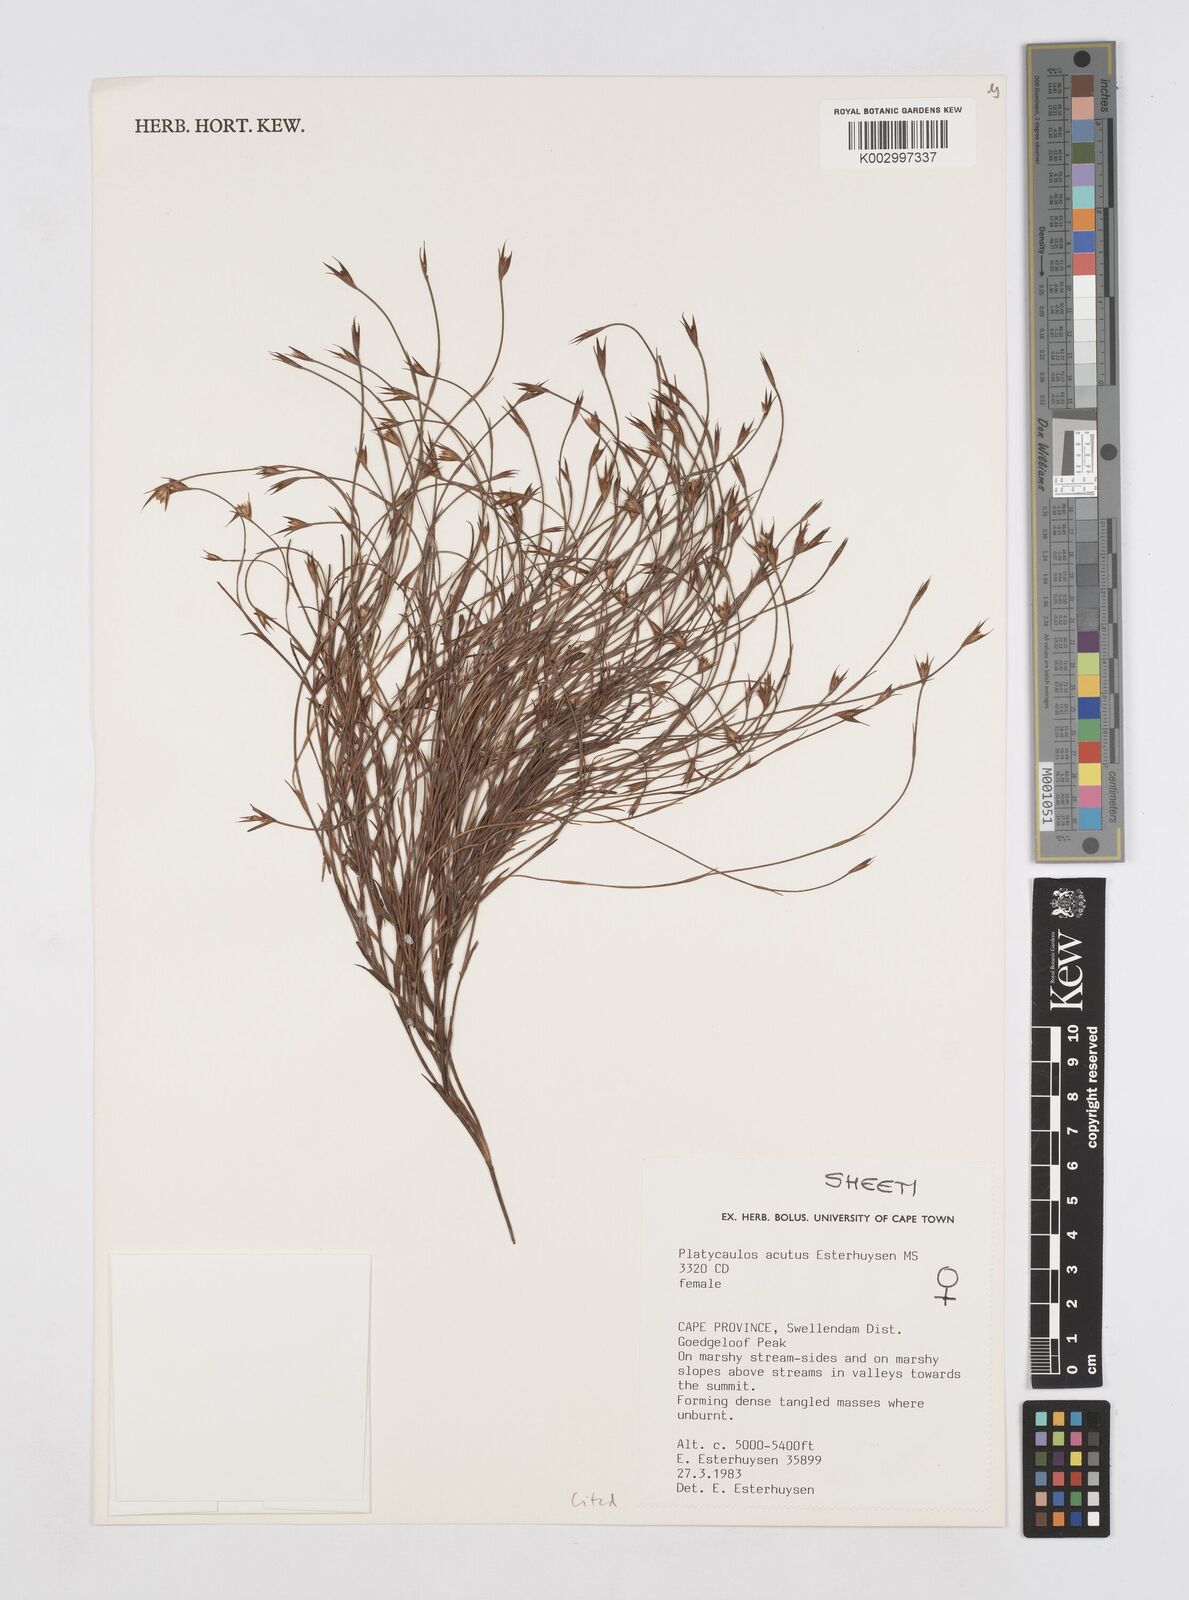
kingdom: Plantae
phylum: Tracheophyta
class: Liliopsida
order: Poales
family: Restionaceae
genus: Platycaulos
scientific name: Platycaulos acutus
